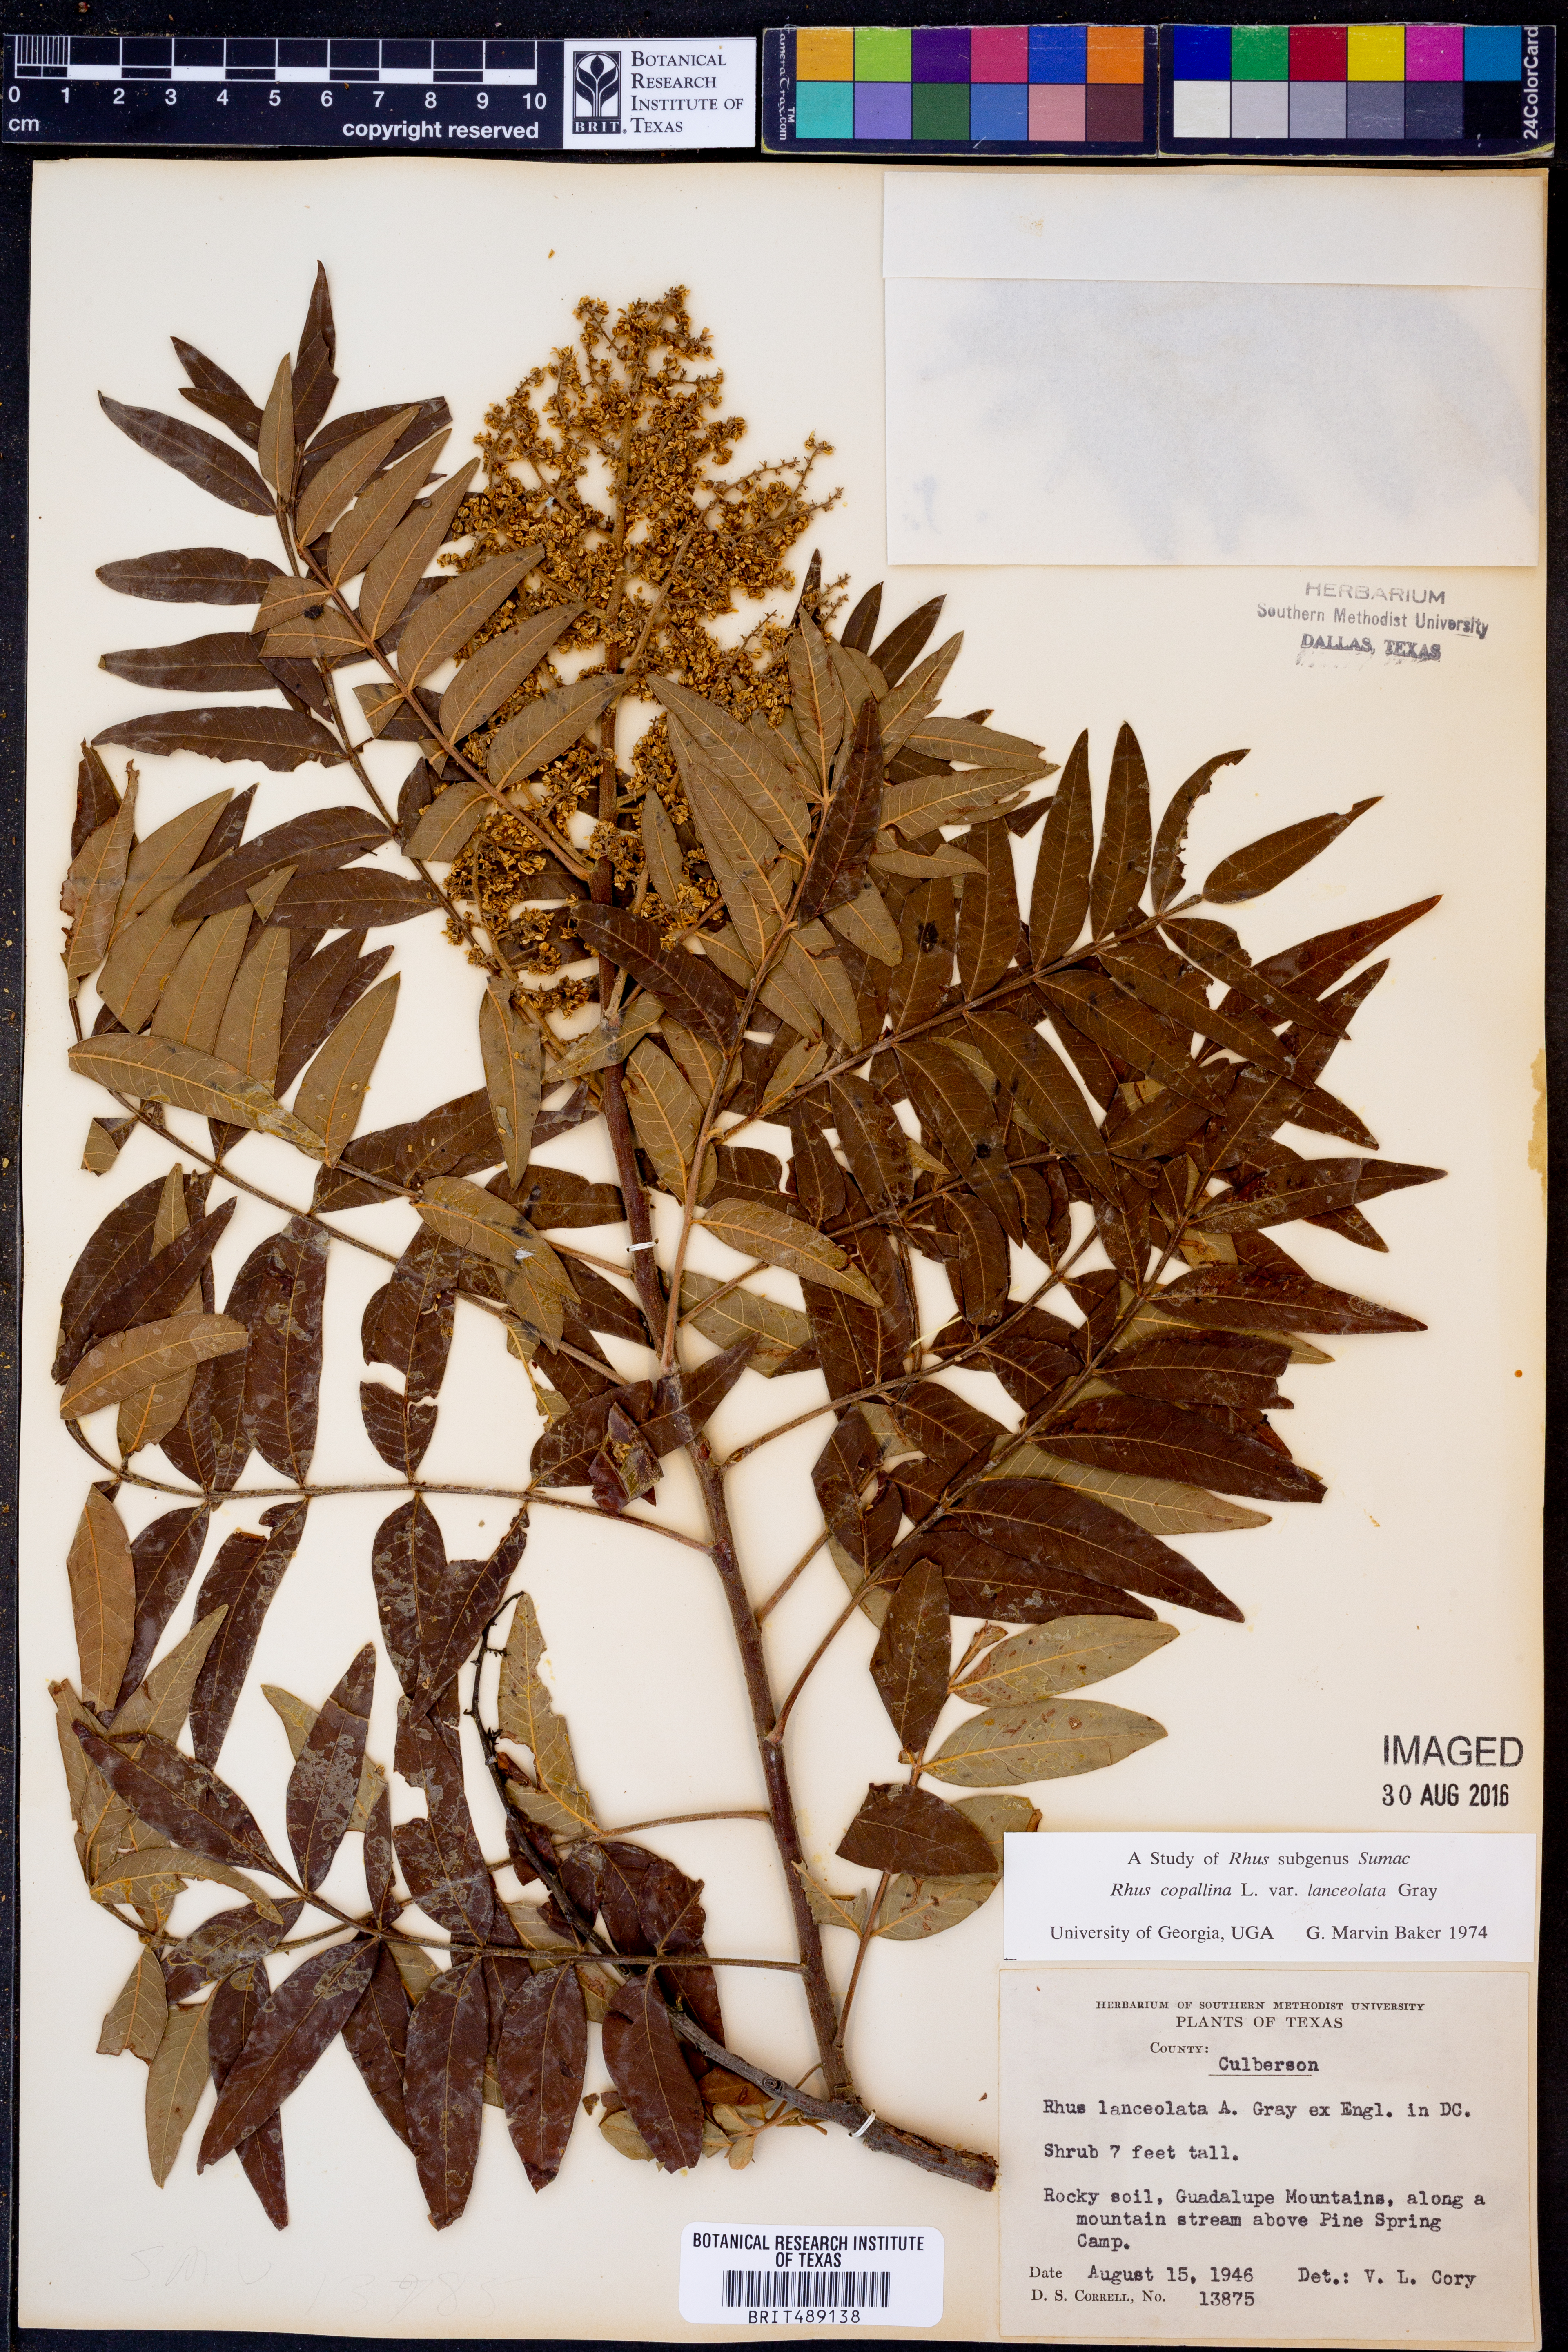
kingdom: Plantae
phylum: Tracheophyta
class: Magnoliopsida
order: Sapindales
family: Anacardiaceae
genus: Rhus
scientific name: Rhus lanceolata
